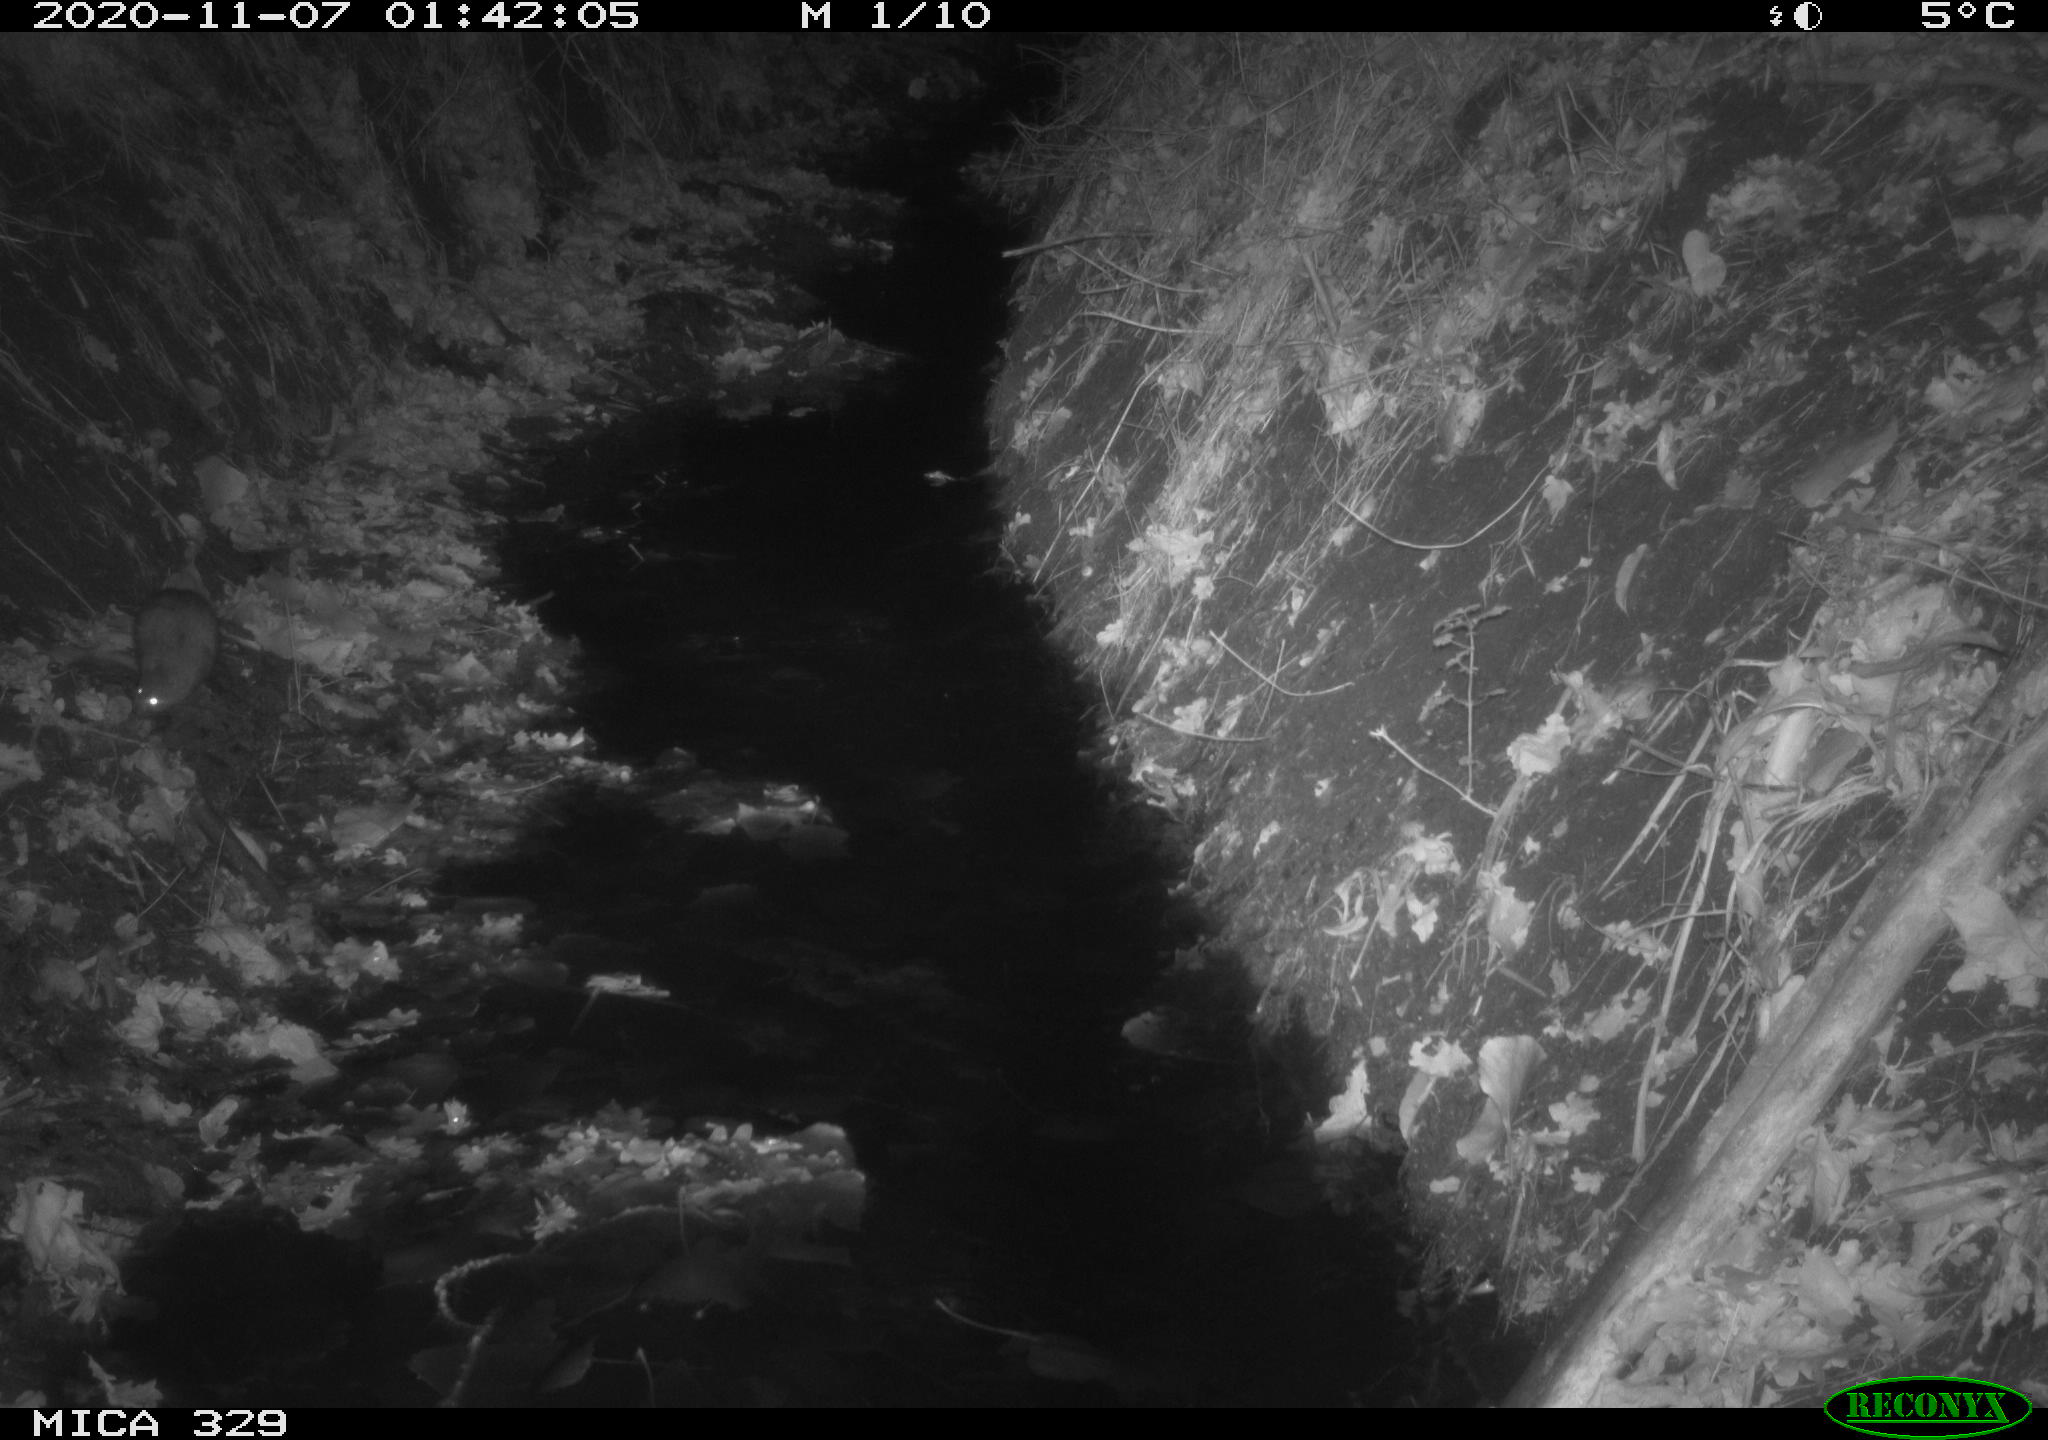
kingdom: Animalia
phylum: Chordata
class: Mammalia
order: Rodentia
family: Muridae
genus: Rattus
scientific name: Rattus norvegicus
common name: Brown rat
